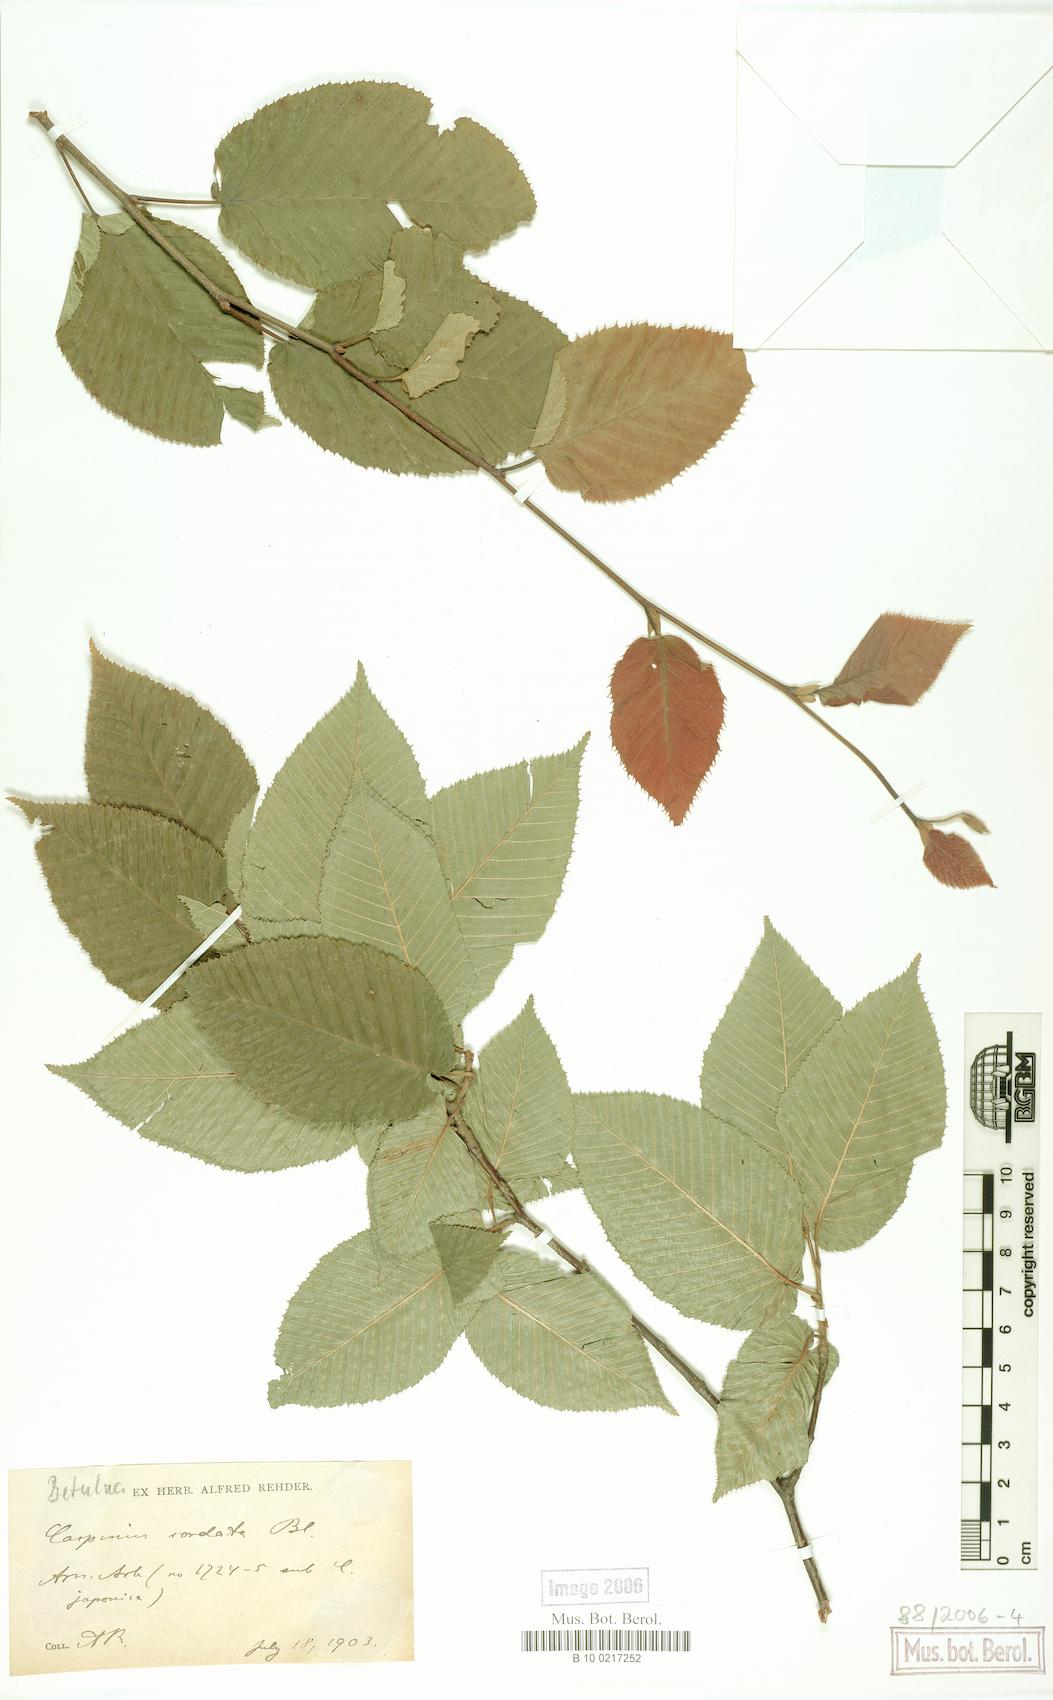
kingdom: Plantae
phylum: Tracheophyta
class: Magnoliopsida
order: Fagales
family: Betulaceae
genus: Carpinus
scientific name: Carpinus cordata
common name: Sawa hornbeam
